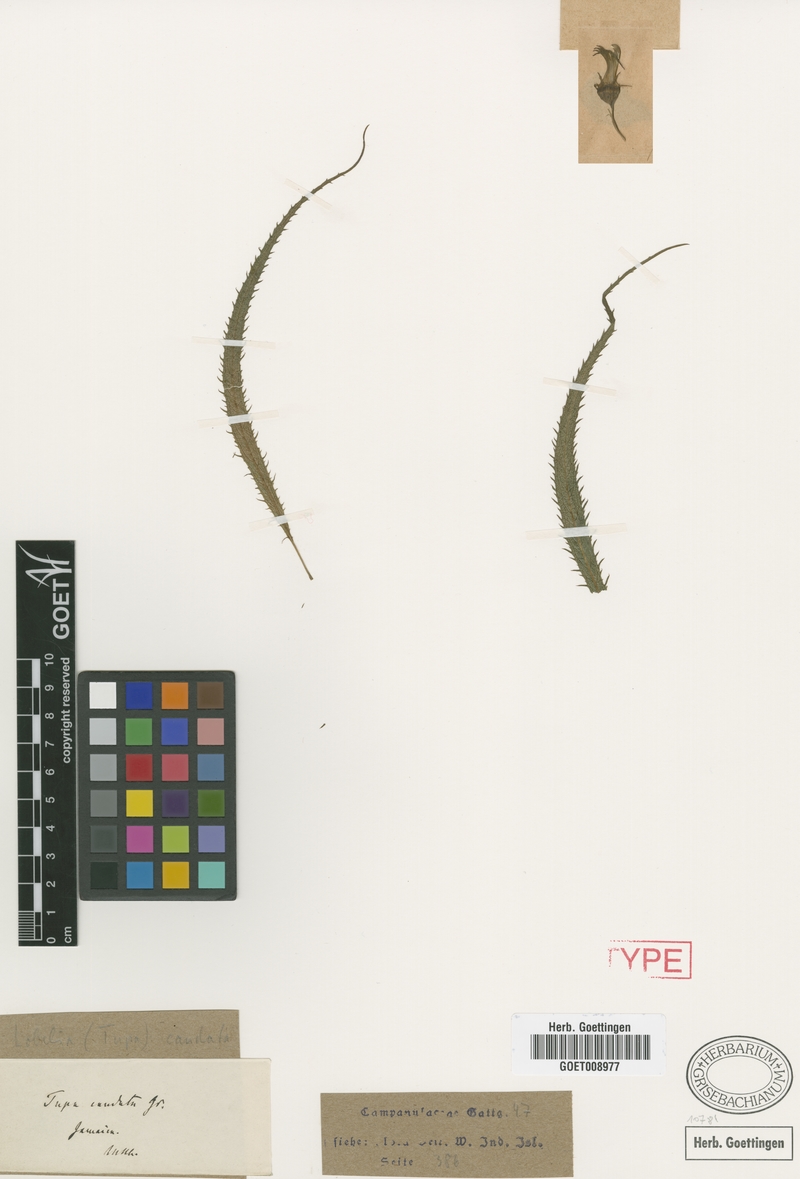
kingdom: Plantae
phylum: Tracheophyta
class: Magnoliopsida
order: Asterales
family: Campanulaceae
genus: Lobelia
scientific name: Lobelia caudata
